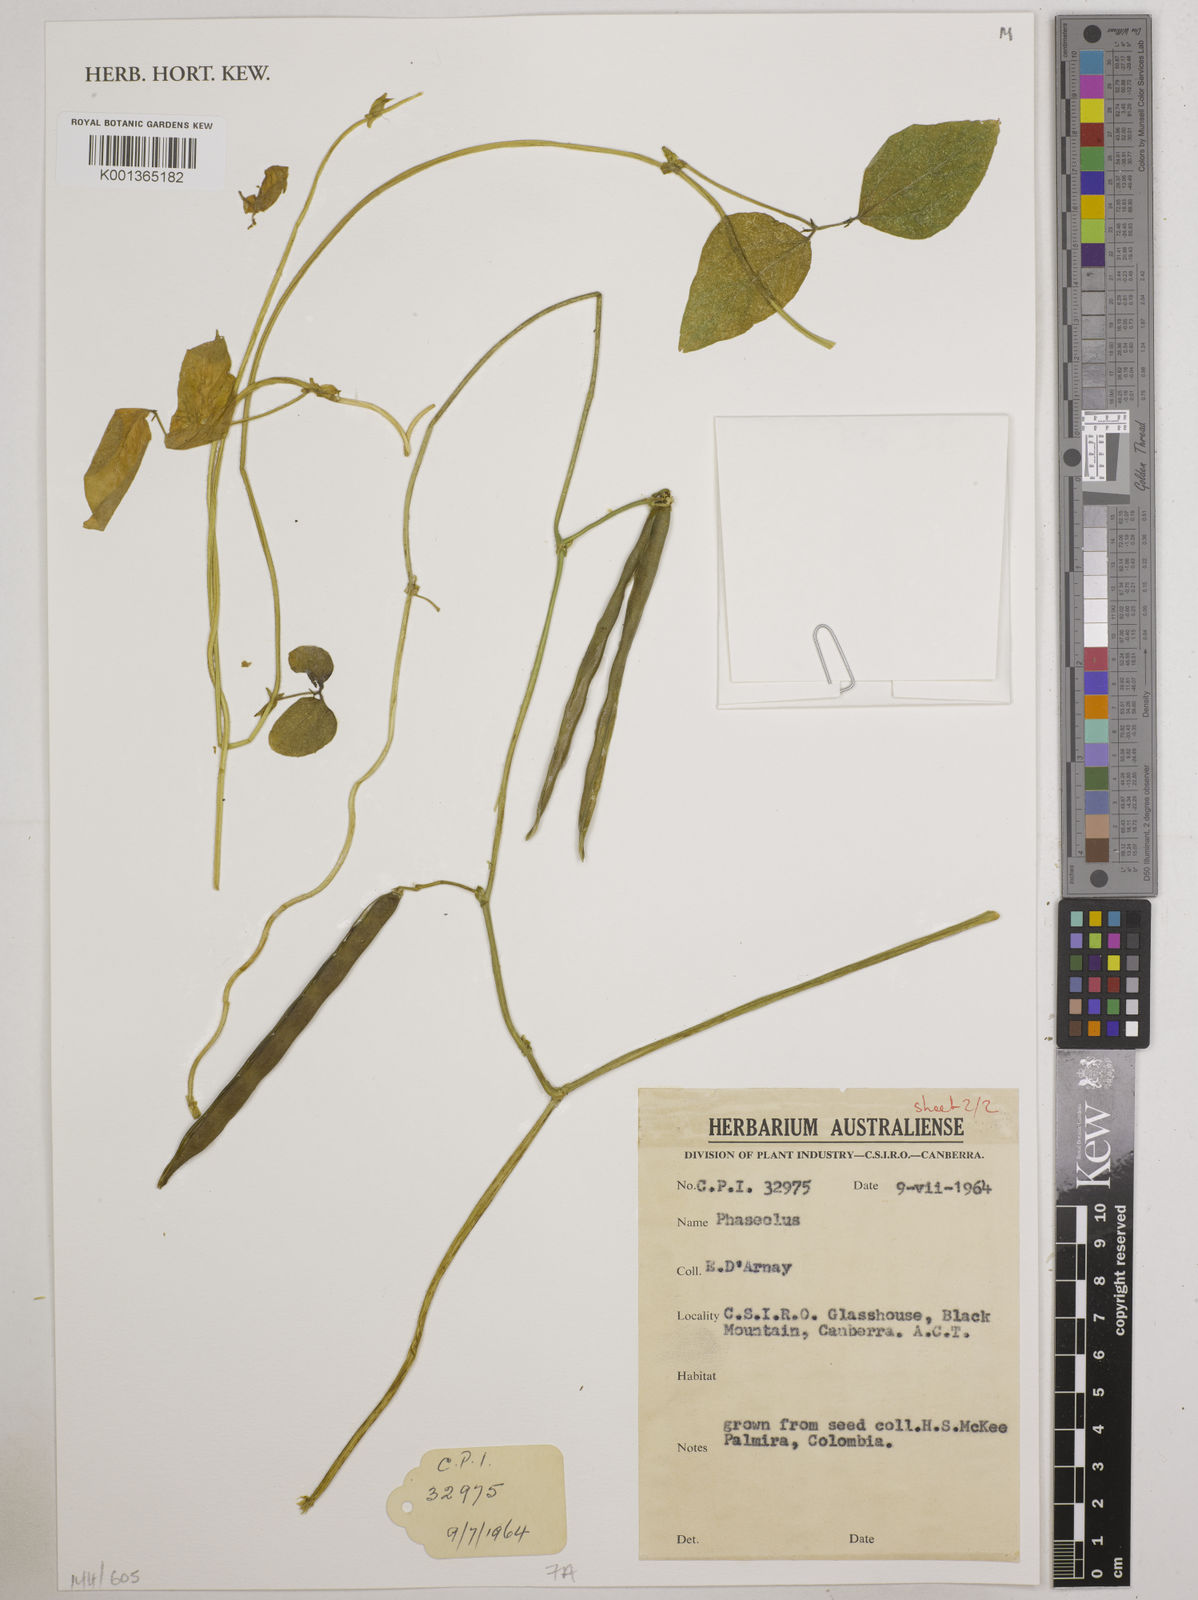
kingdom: Plantae
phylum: Tracheophyta
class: Magnoliopsida
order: Fabales
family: Fabaceae
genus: Phaseolus
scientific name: Phaseolus
